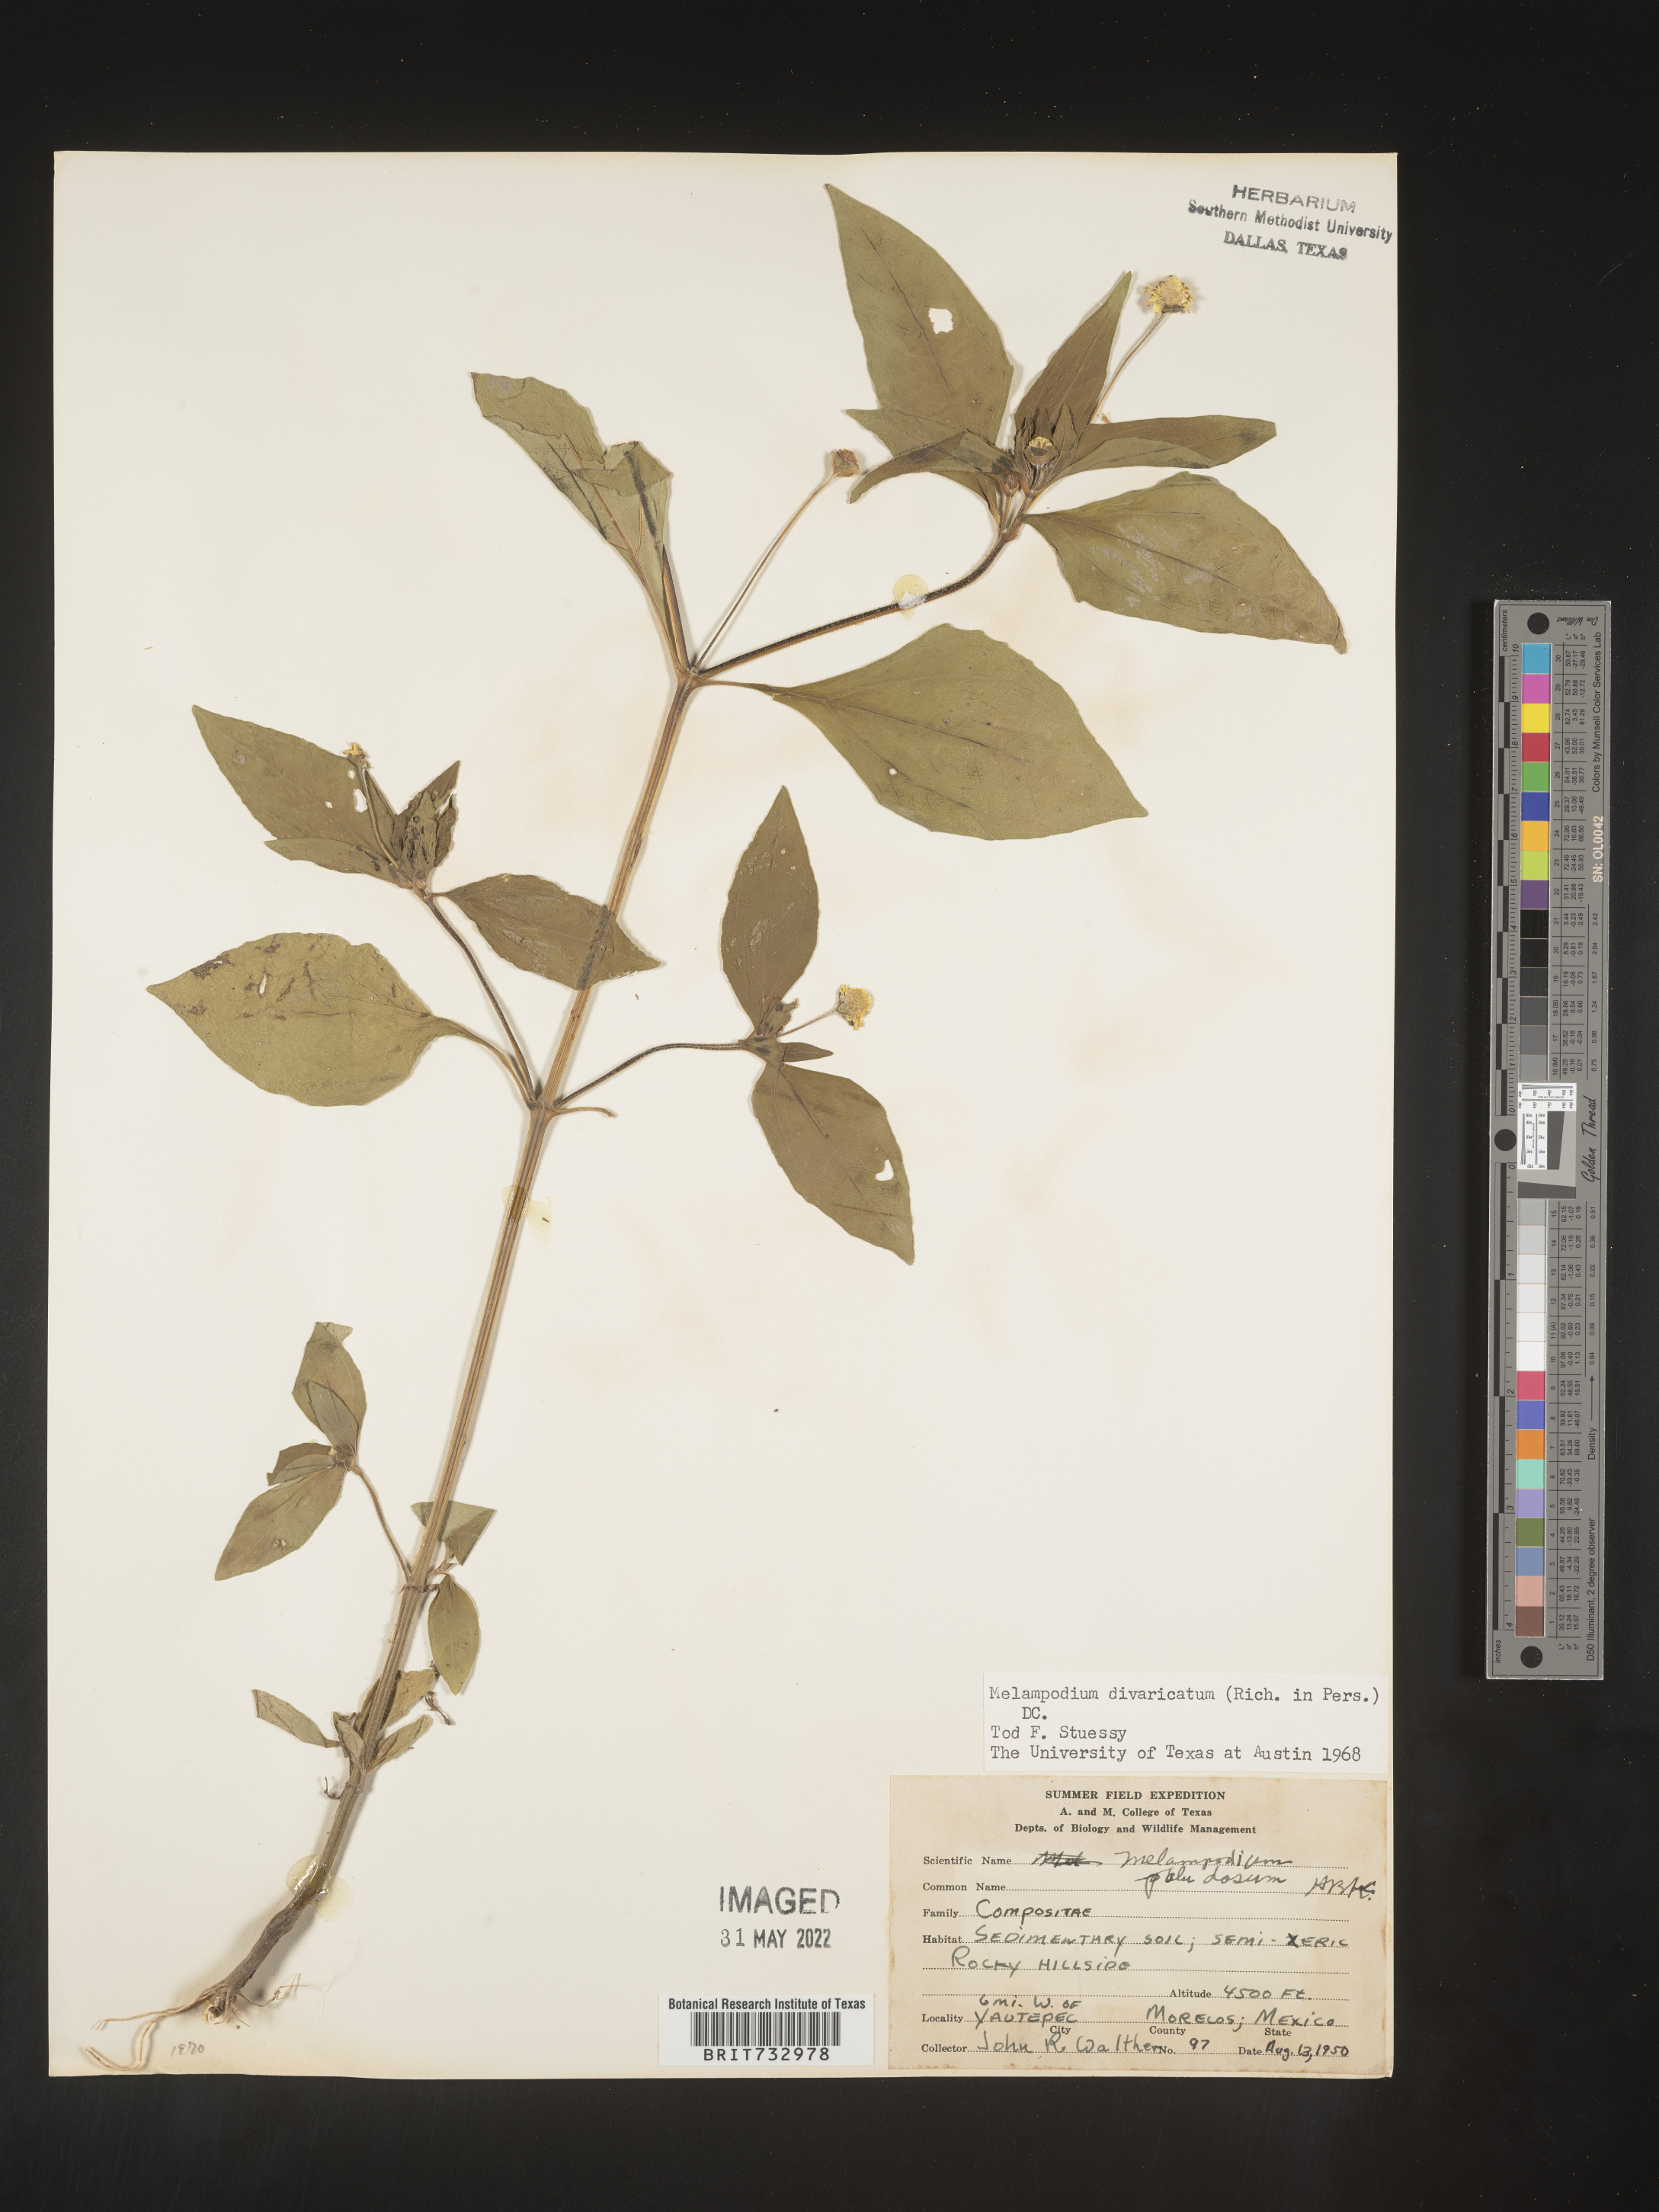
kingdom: Plantae
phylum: Tracheophyta
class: Magnoliopsida
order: Asterales
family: Asteraceae
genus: Melampodium
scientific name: Melampodium
